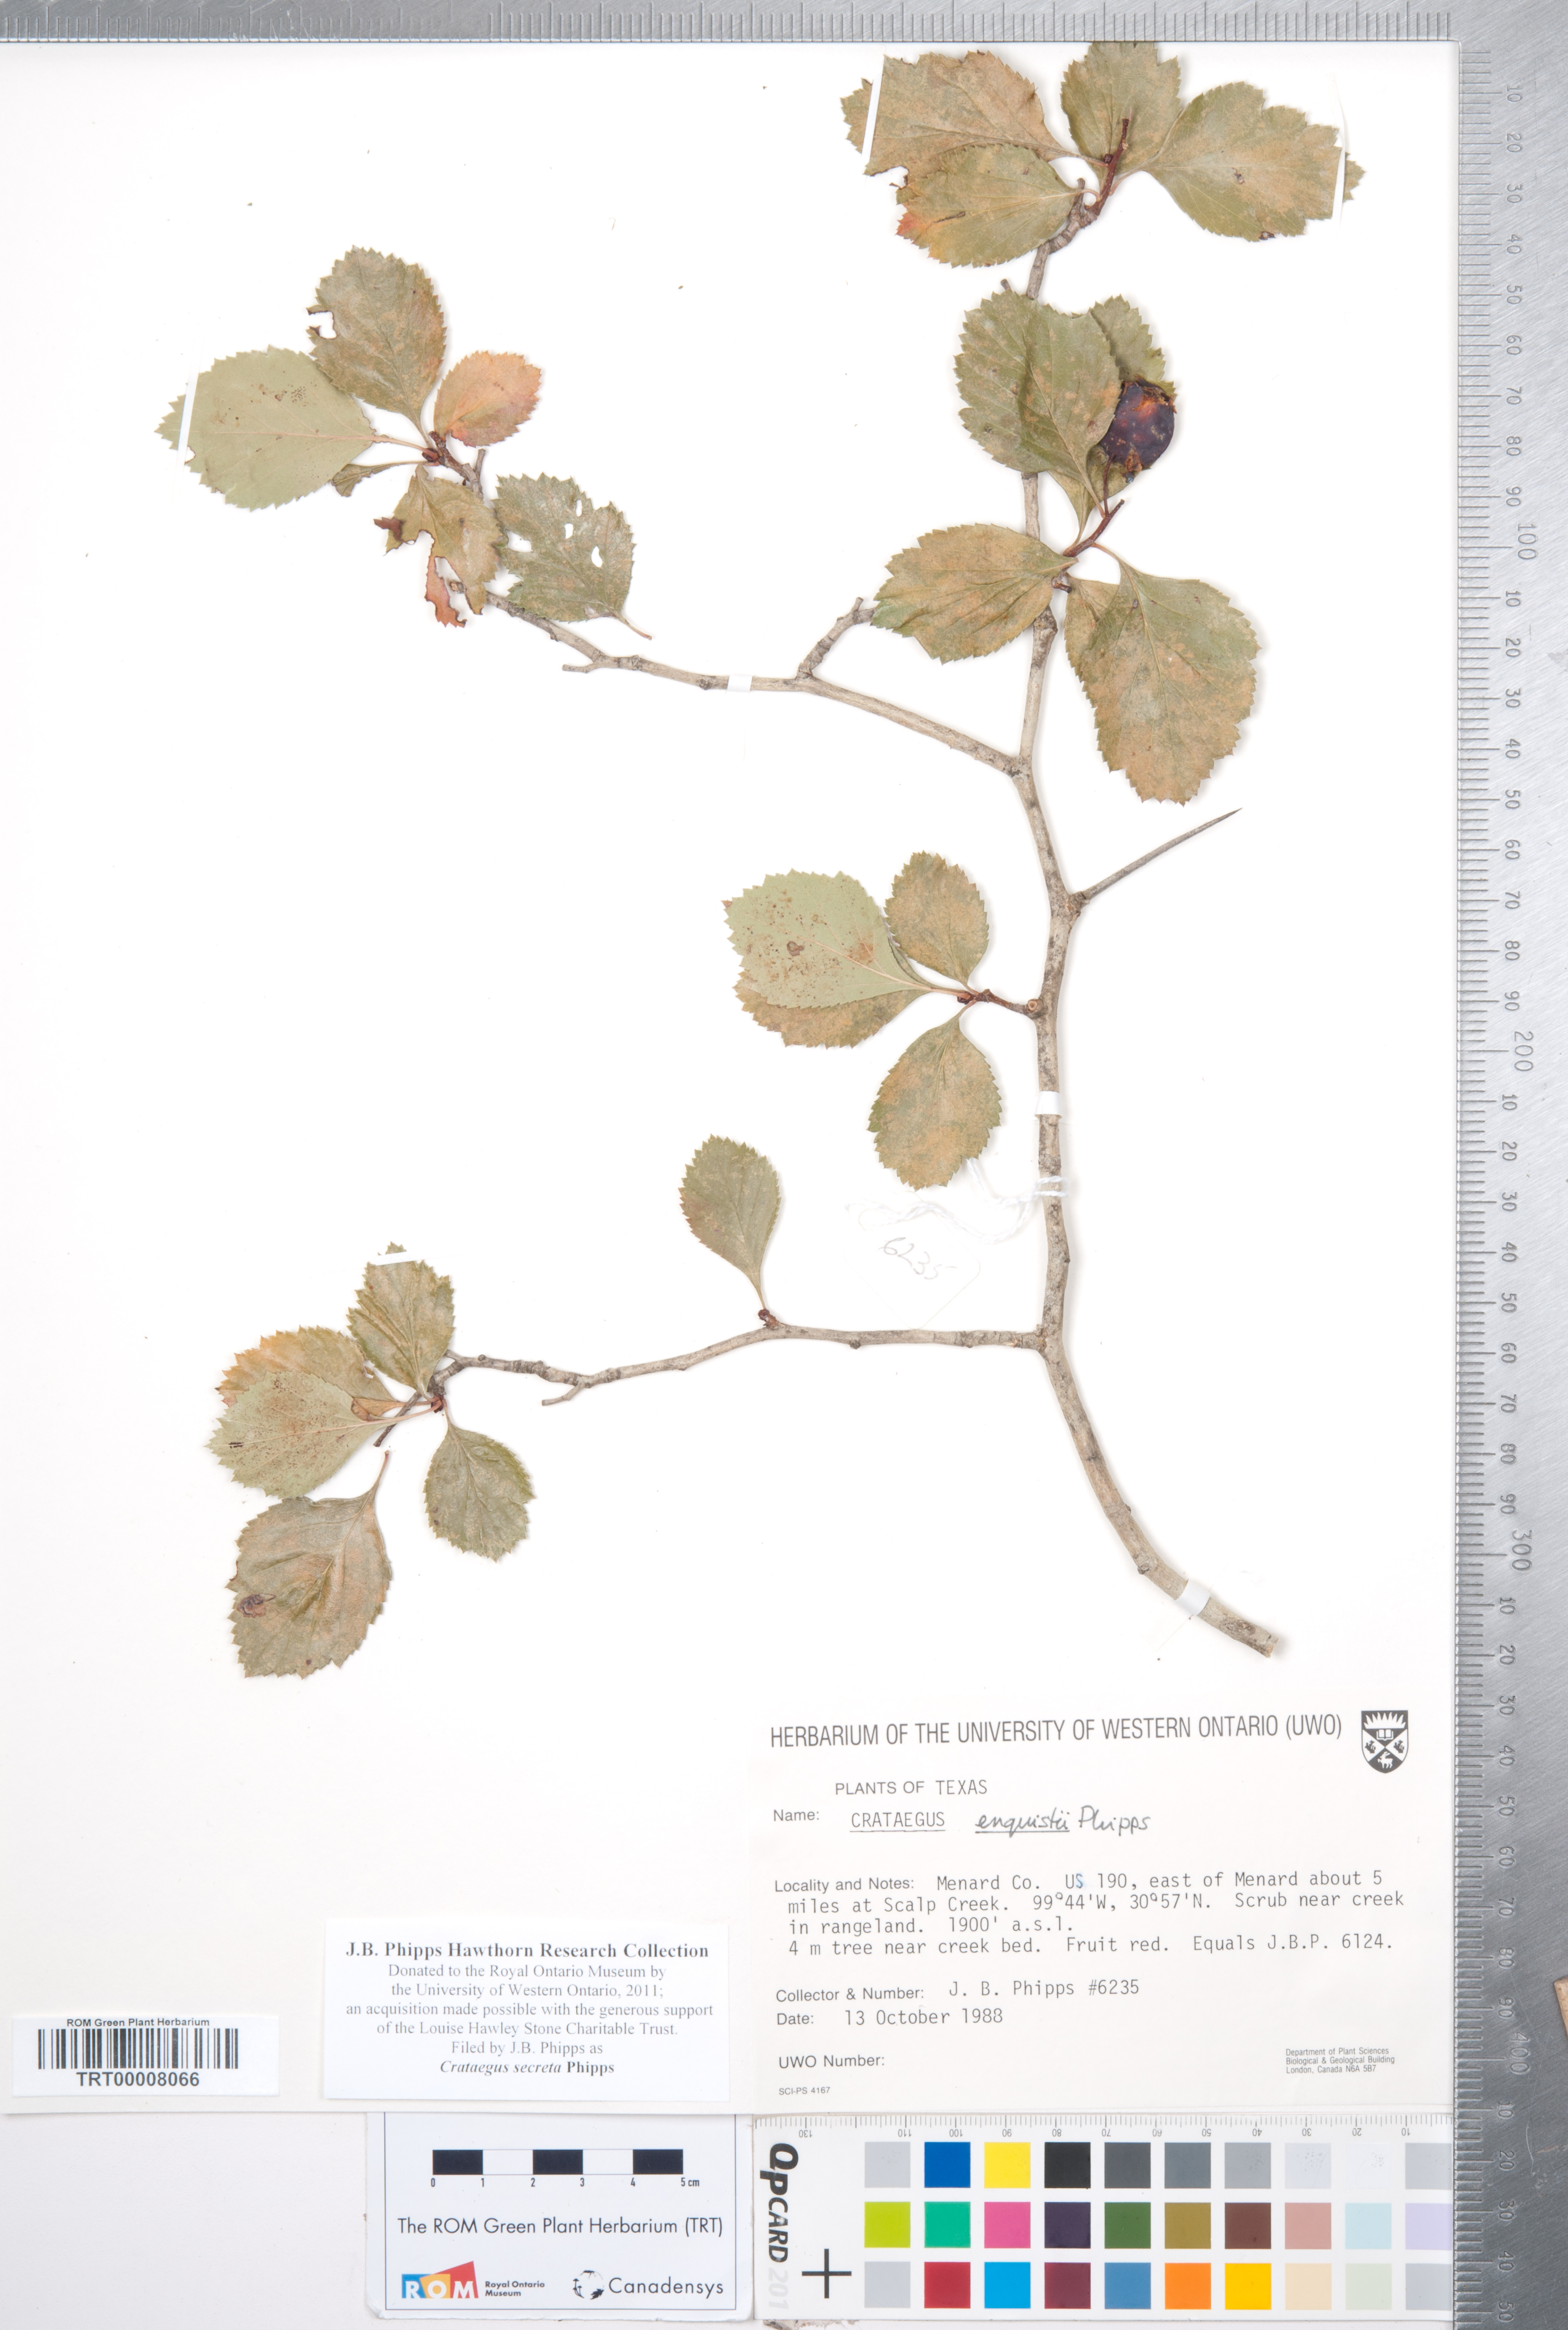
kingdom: Plantae
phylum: Tracheophyta
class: Magnoliopsida
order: Rosales
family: Rosaceae
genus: Crataegus
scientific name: Crataegus turnerorum
